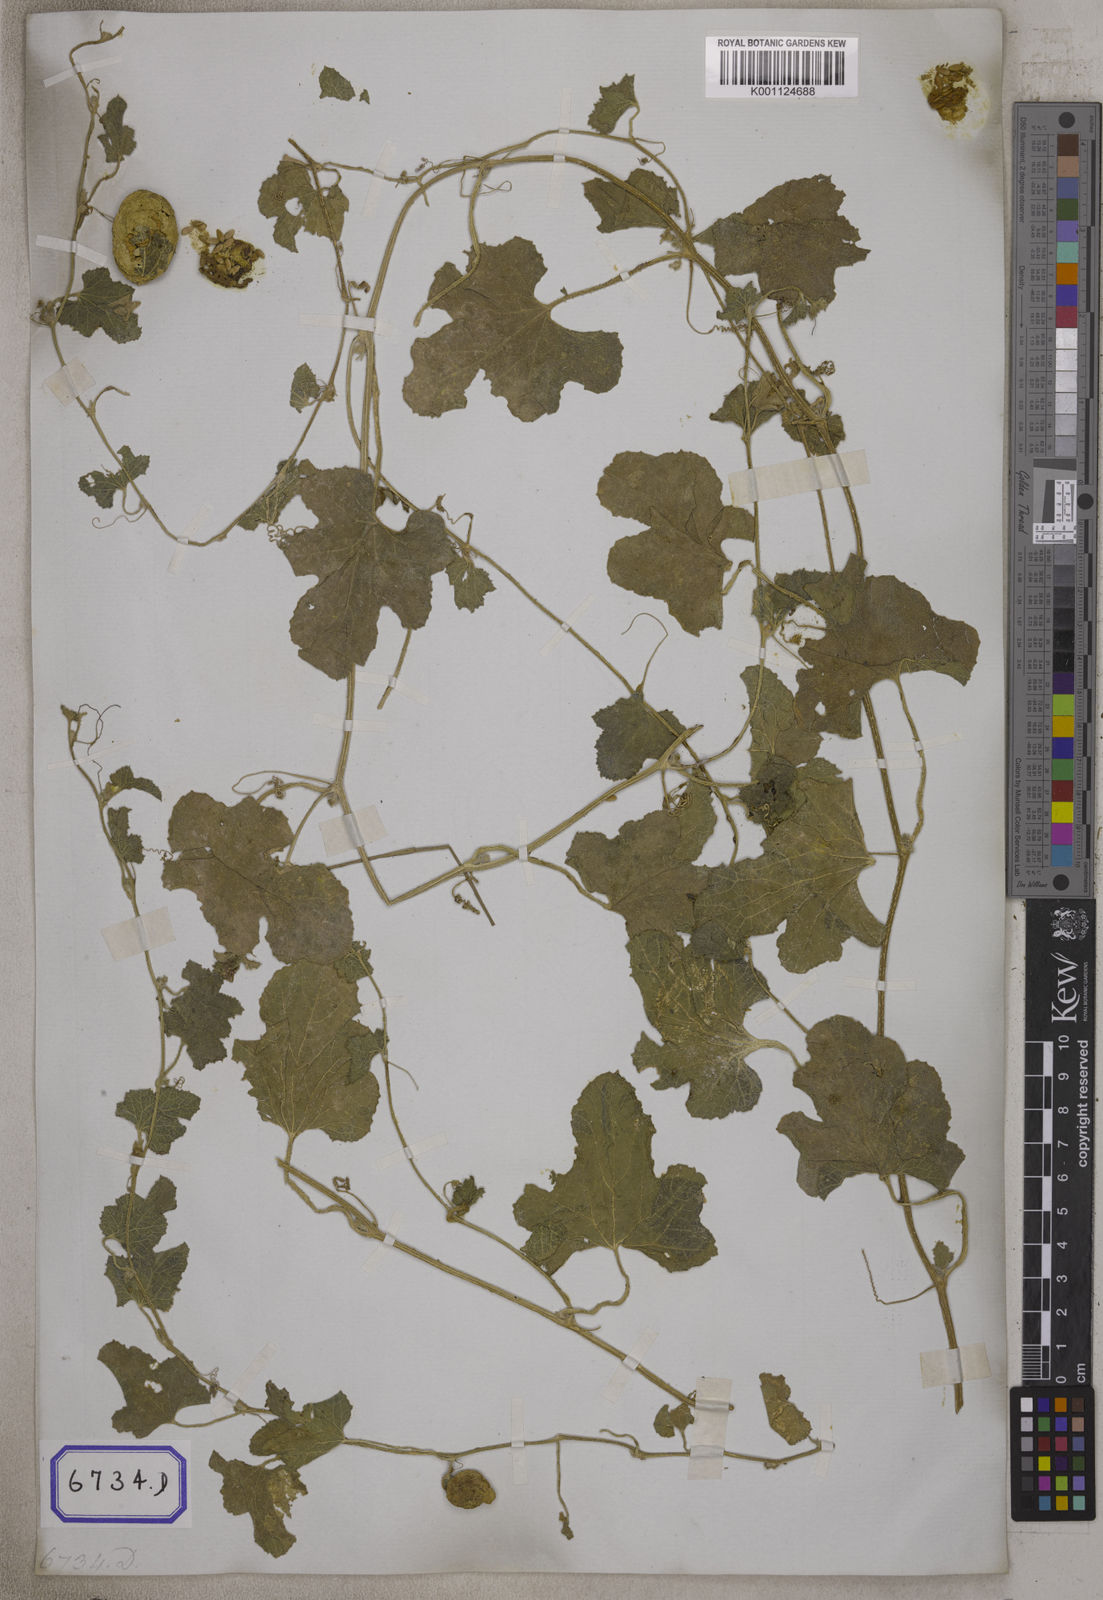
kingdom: Plantae
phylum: Tracheophyta
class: Magnoliopsida
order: Cucurbitales
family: Cucurbitaceae
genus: Cucumis
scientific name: Cucumis
